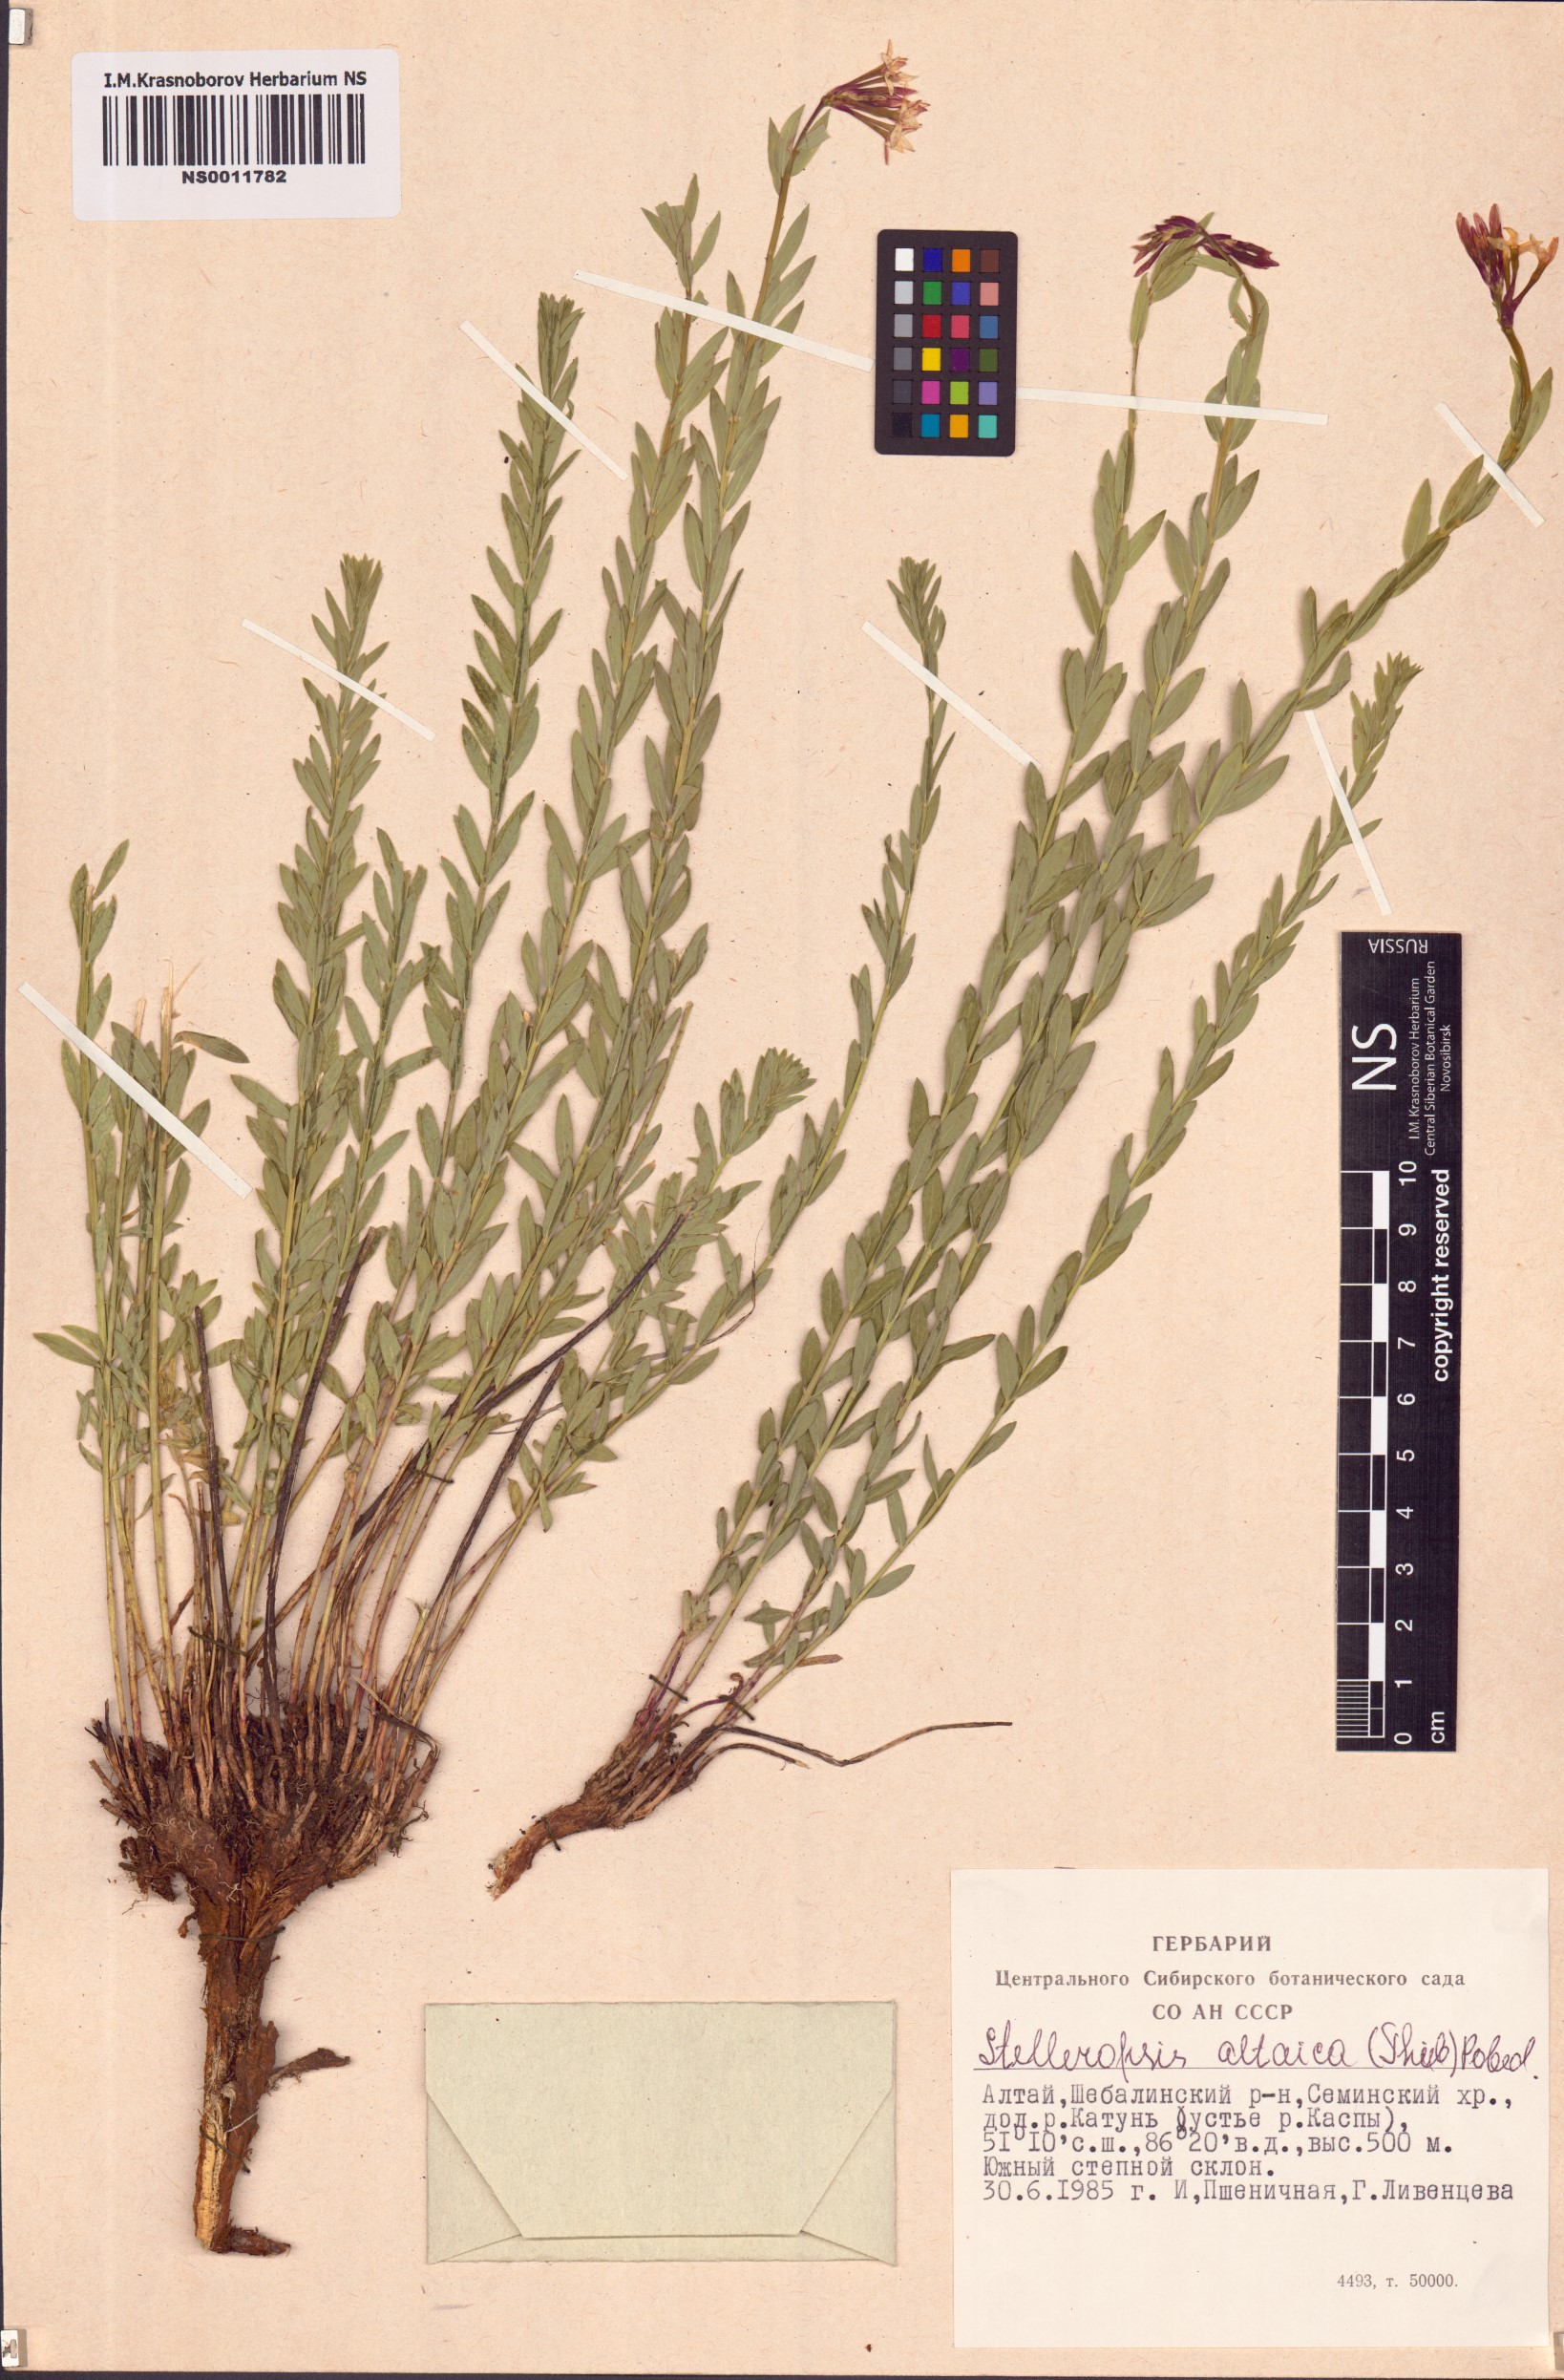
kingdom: Plantae
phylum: Tracheophyta
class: Magnoliopsida
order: Malvales
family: Thymelaeaceae
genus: Diarthron
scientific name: Diarthron altaicum
